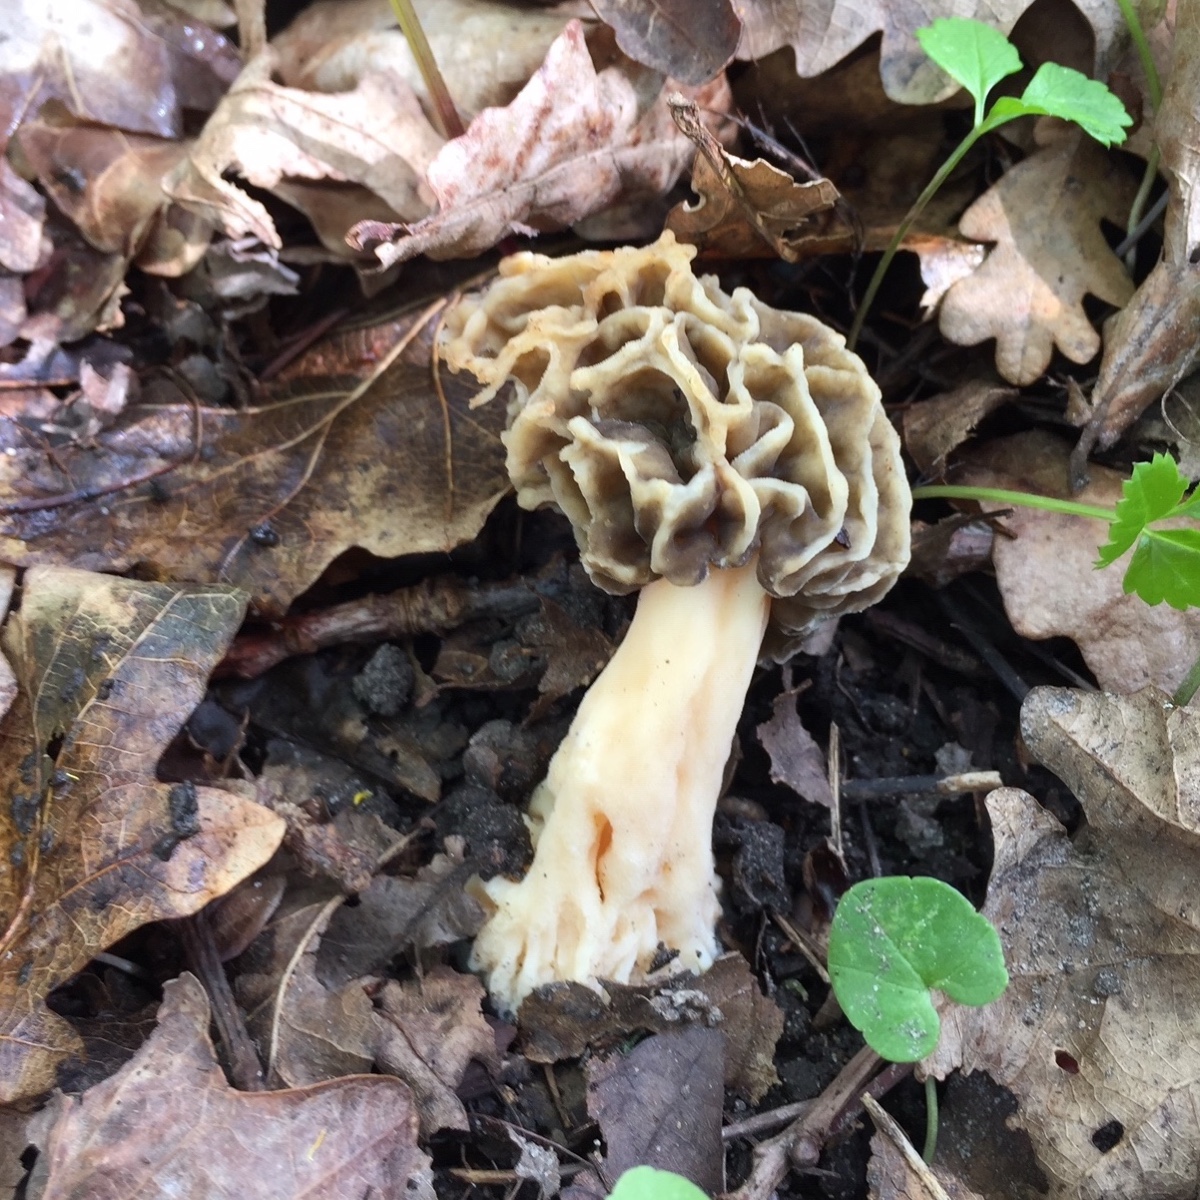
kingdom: Fungi
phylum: Ascomycota
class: Pezizomycetes
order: Pezizales
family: Morchellaceae
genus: Morchella
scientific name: Morchella esculenta
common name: almindelig morkel
